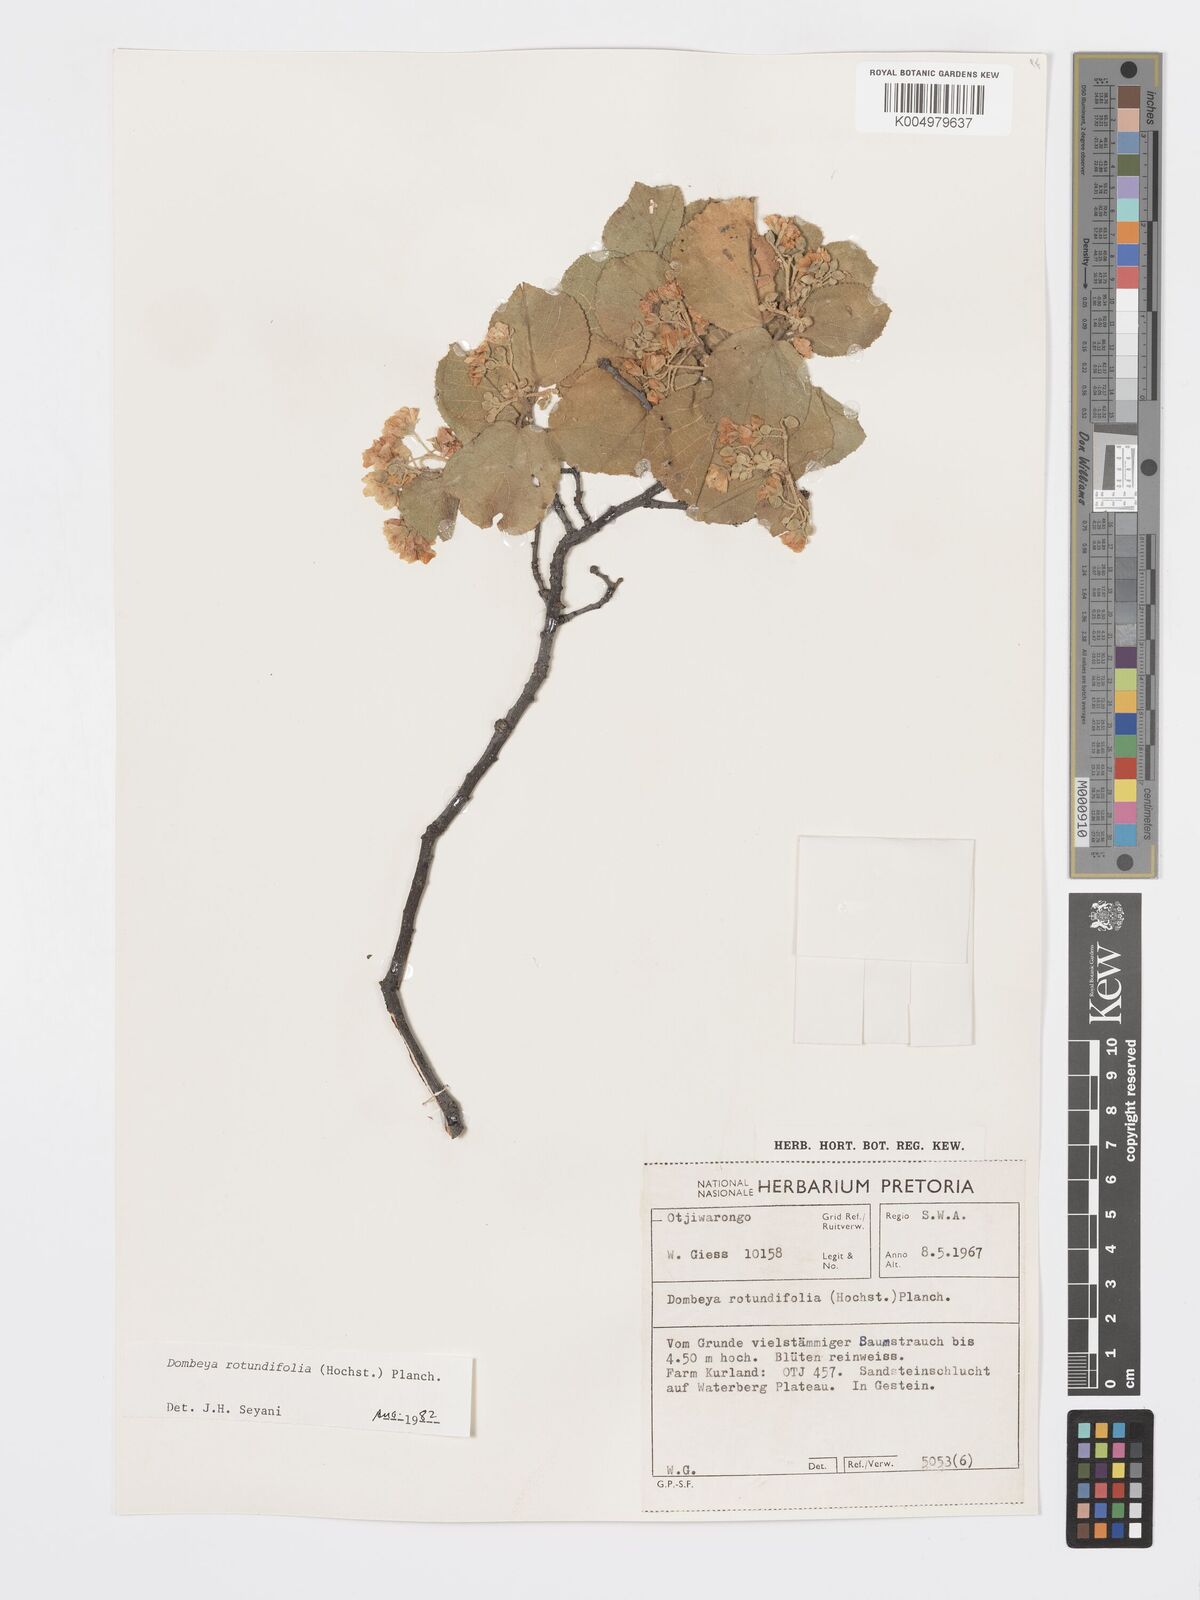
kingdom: Plantae
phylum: Tracheophyta
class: Magnoliopsida
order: Malvales
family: Malvaceae
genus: Dombeya
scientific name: Dombeya rotundifolia
